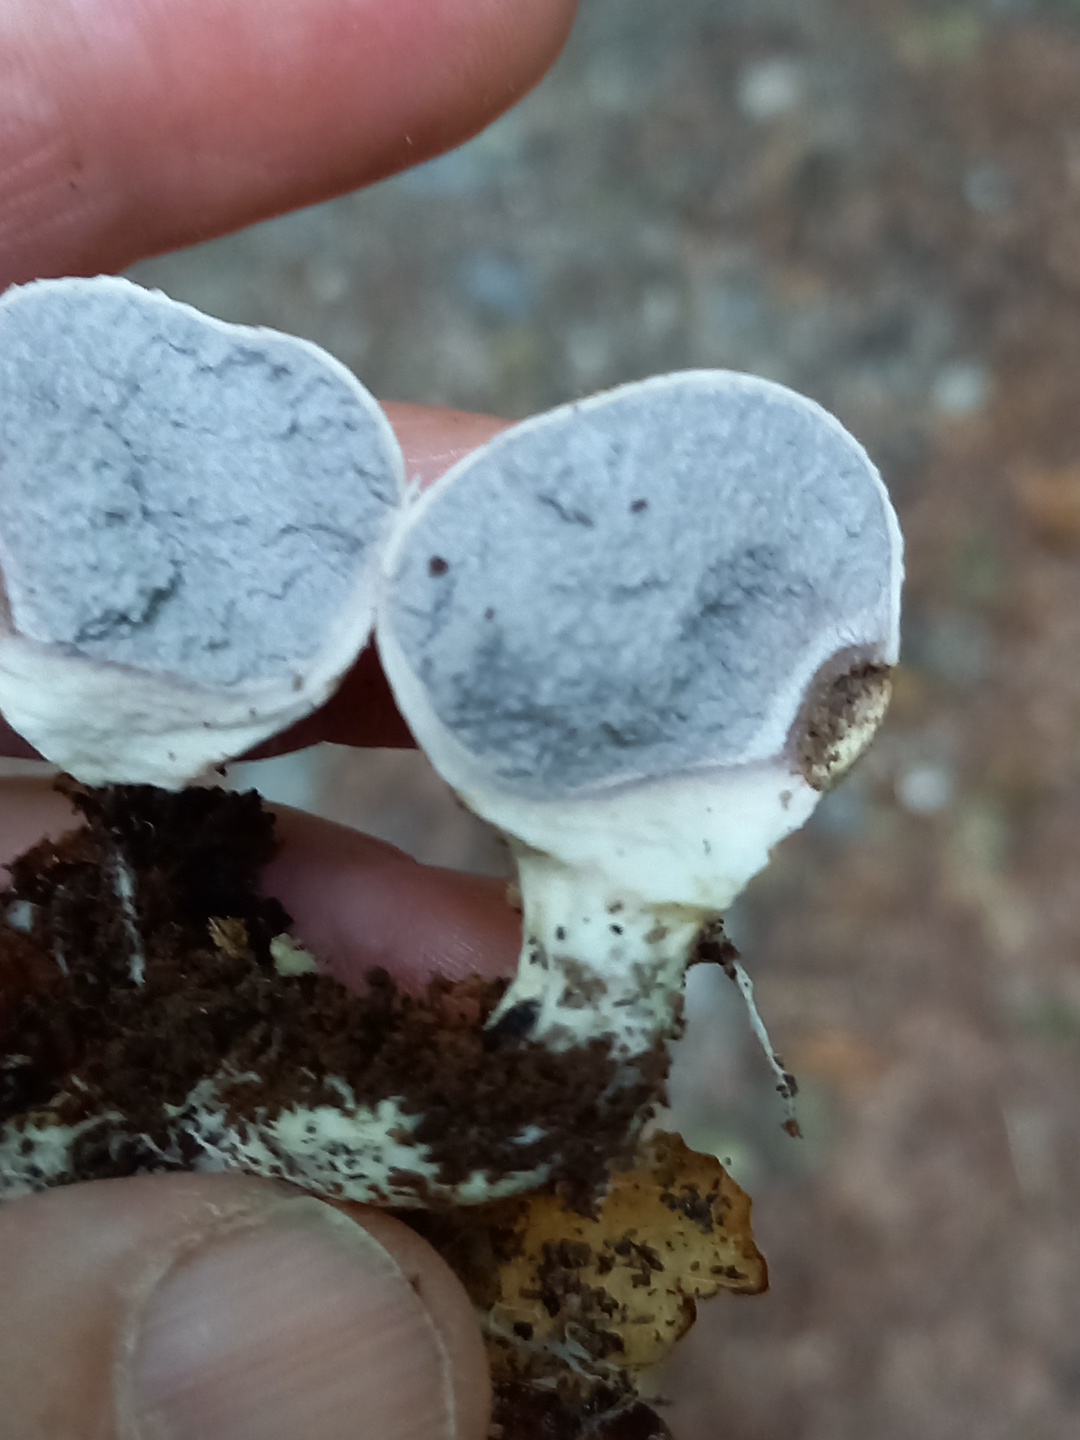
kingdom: Fungi
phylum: Basidiomycota
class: Agaricomycetes
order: Boletales
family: Sclerodermataceae
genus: Scleroderma
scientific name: Scleroderma citrinum
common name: almindelig bruskbold
